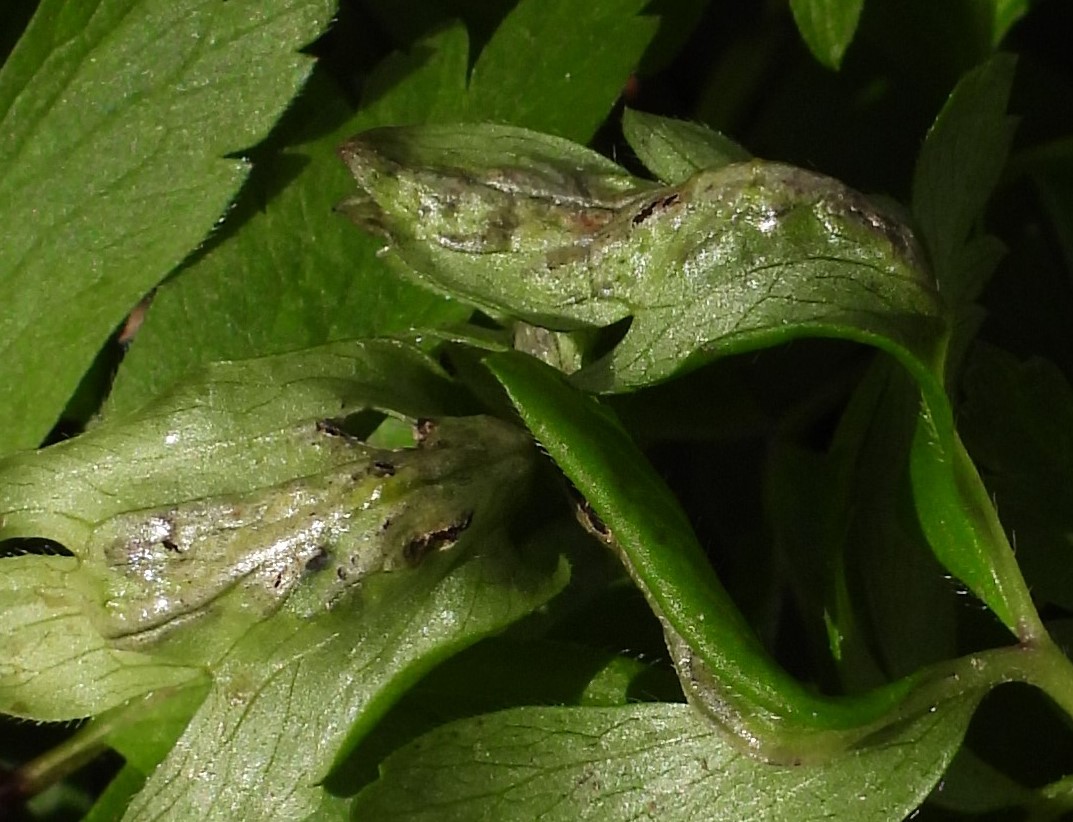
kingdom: Fungi
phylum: Basidiomycota
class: Ustilaginomycetes
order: Urocystidales
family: Urocystidaceae
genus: Urocystis
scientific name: Urocystis anemones
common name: anemone-brand
